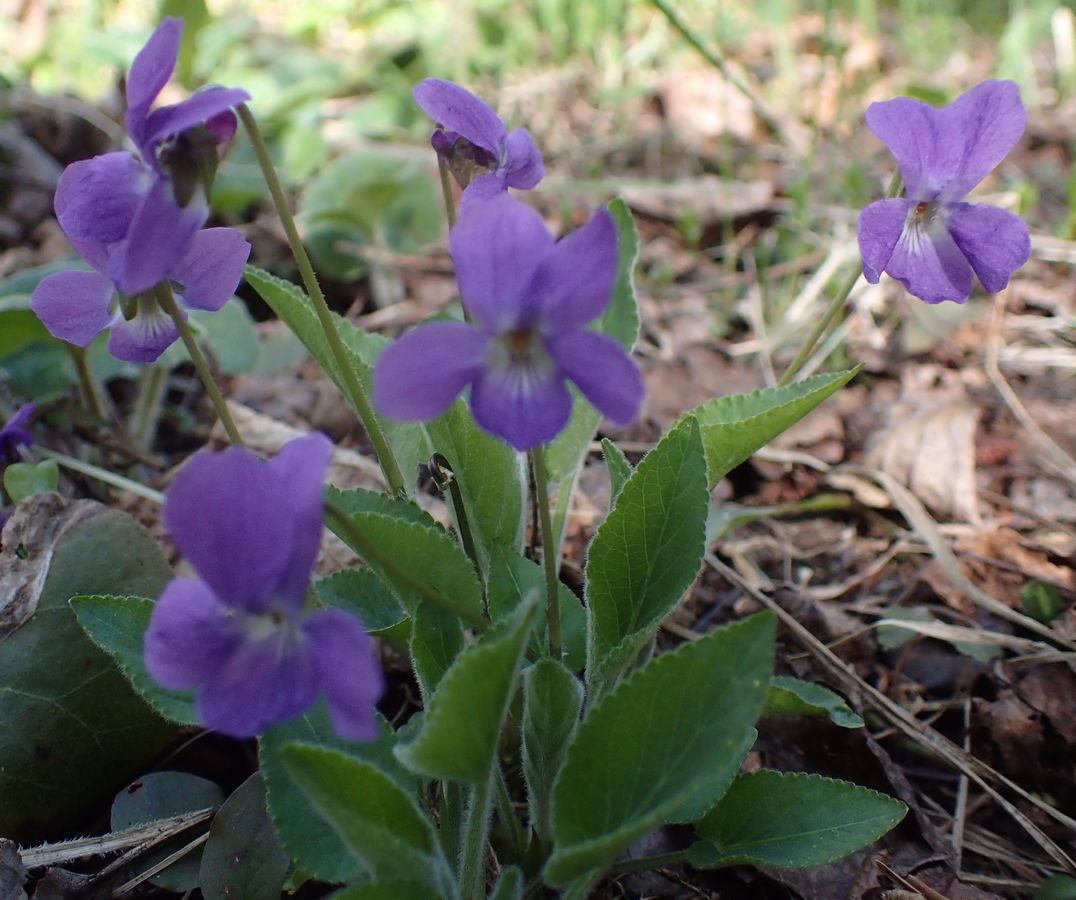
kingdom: Plantae
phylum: Tracheophyta
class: Magnoliopsida
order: Malpighiales
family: Violaceae
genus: Viola
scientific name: Viola
